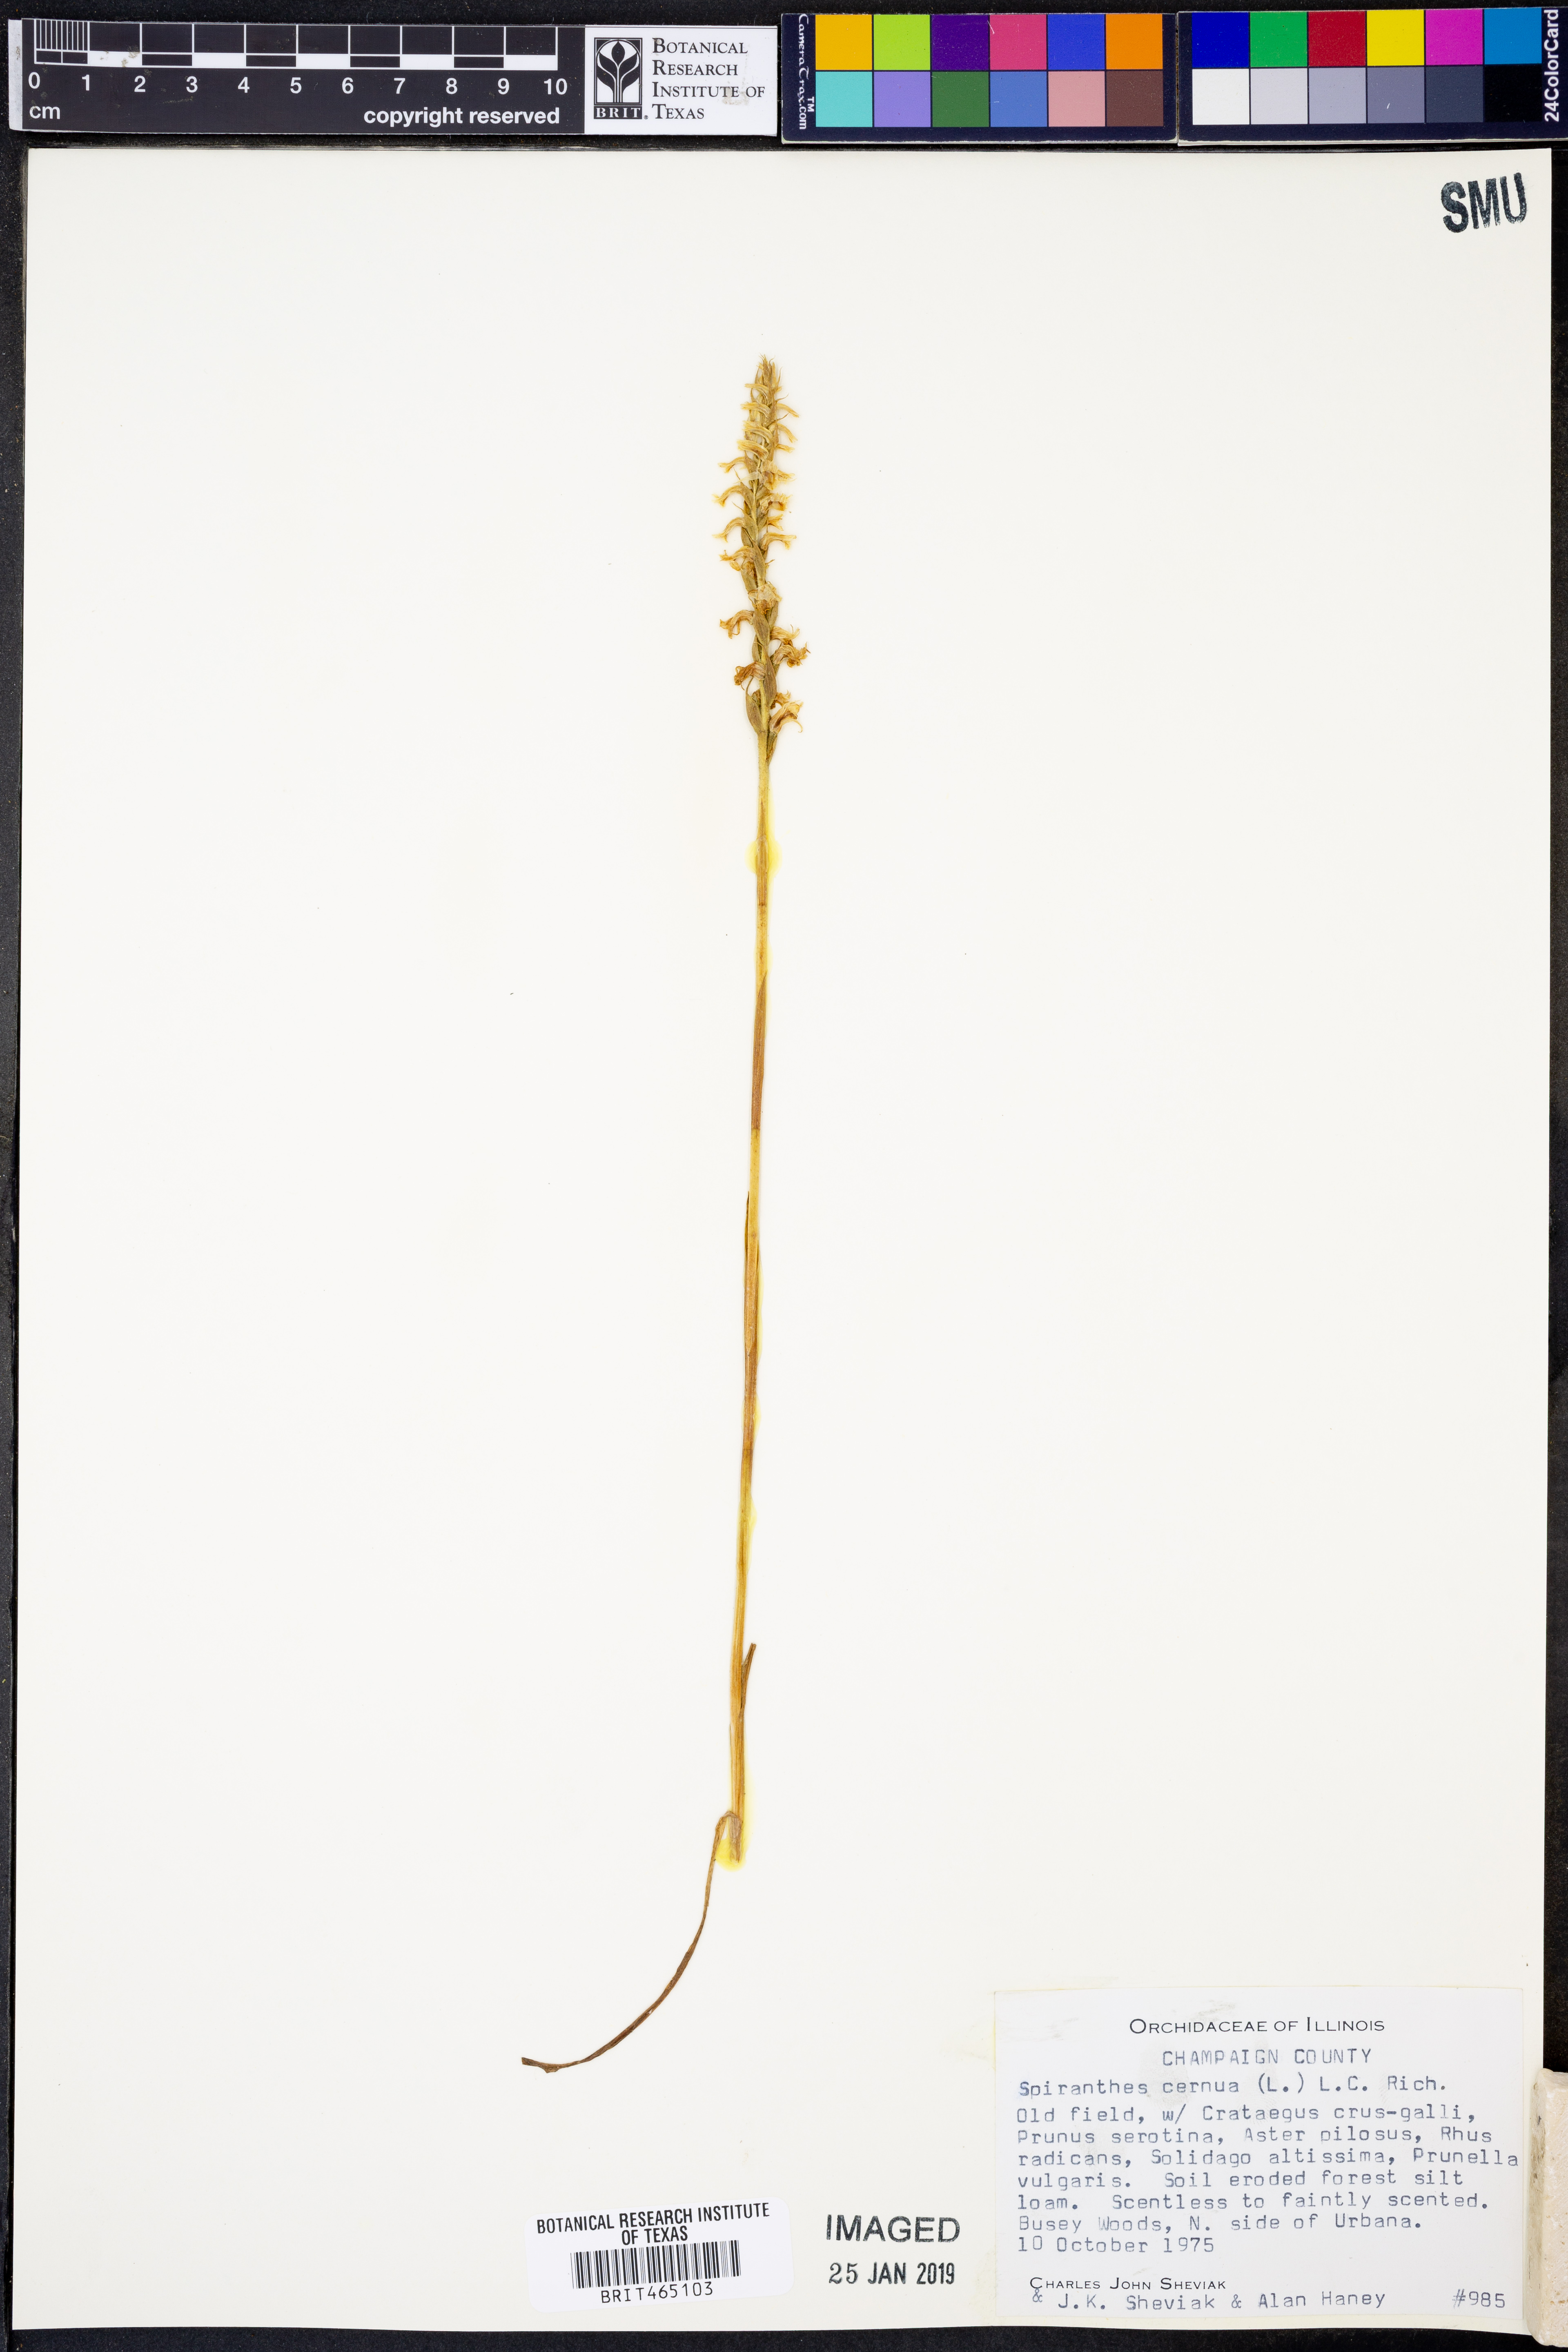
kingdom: Plantae
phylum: Tracheophyta
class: Liliopsida
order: Asparagales
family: Orchidaceae
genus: Spiranthes
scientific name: Spiranthes cernua
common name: Dropping ladies'-tresses
